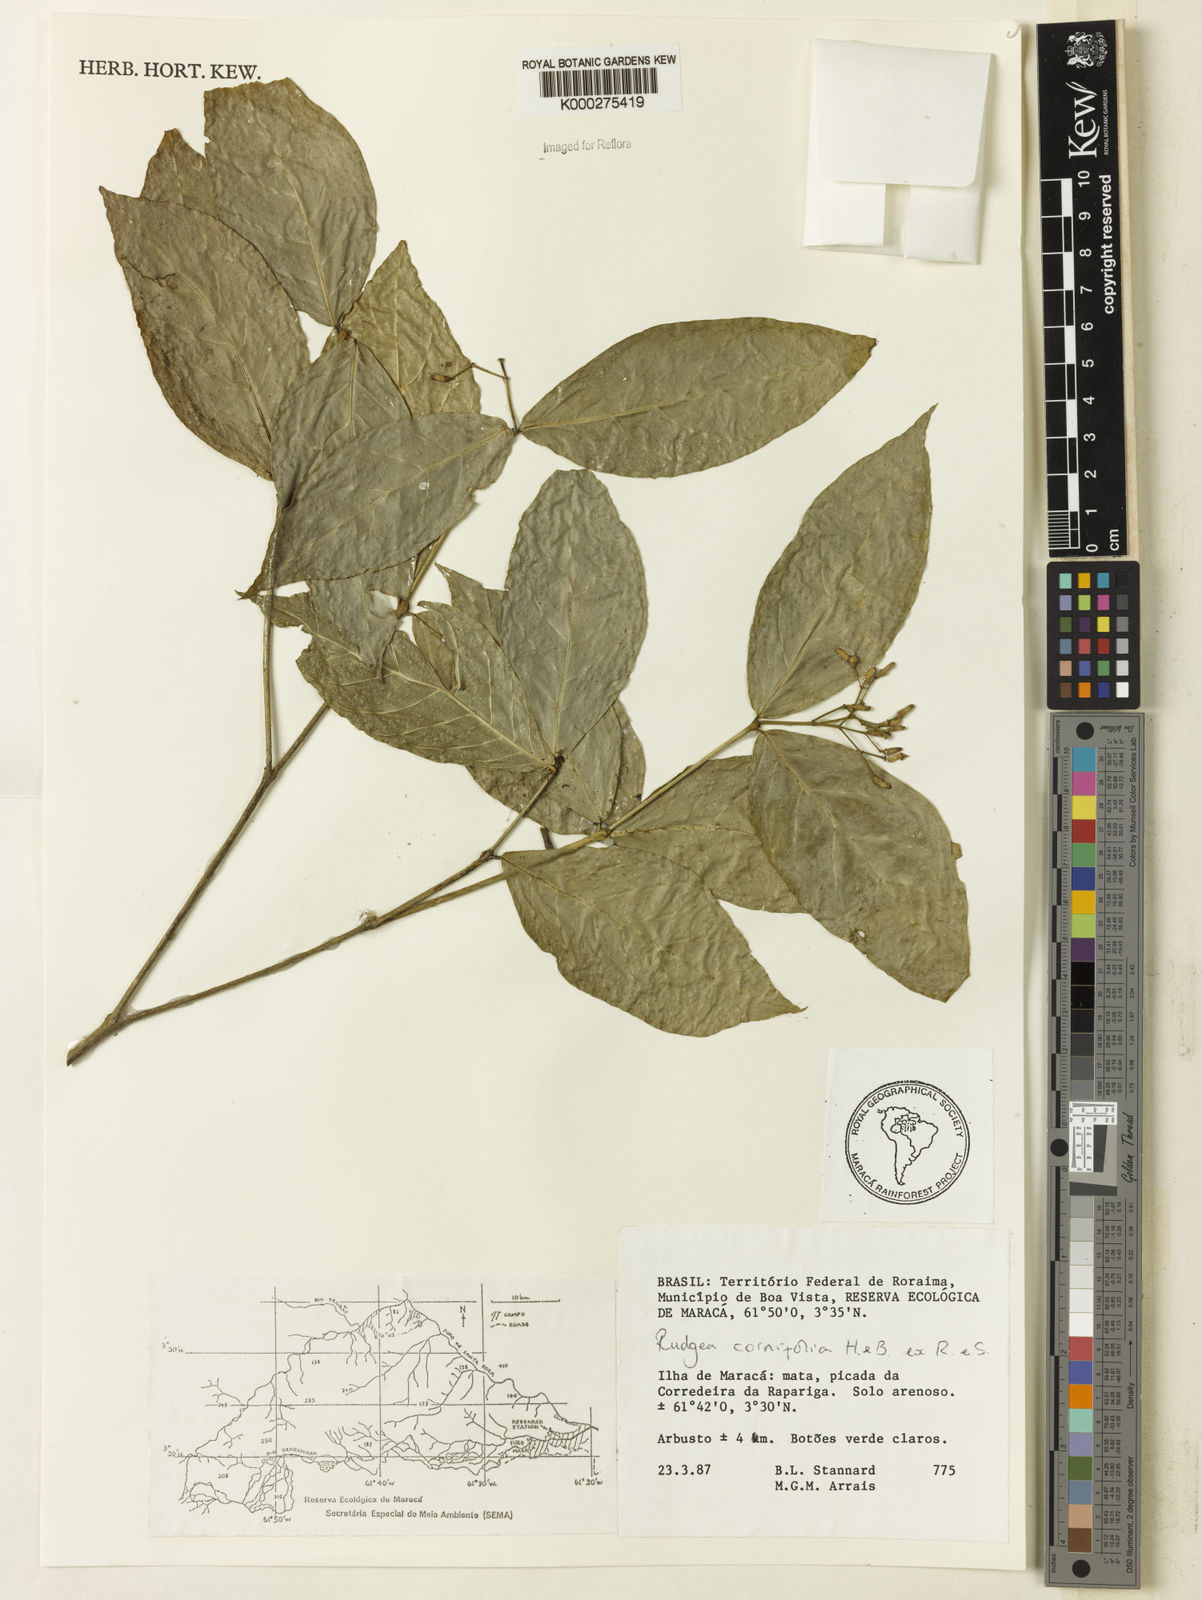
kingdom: Plantae
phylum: Tracheophyta
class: Magnoliopsida
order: Gentianales
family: Rubiaceae
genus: Rudgea
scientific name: Rudgea cornifolia
